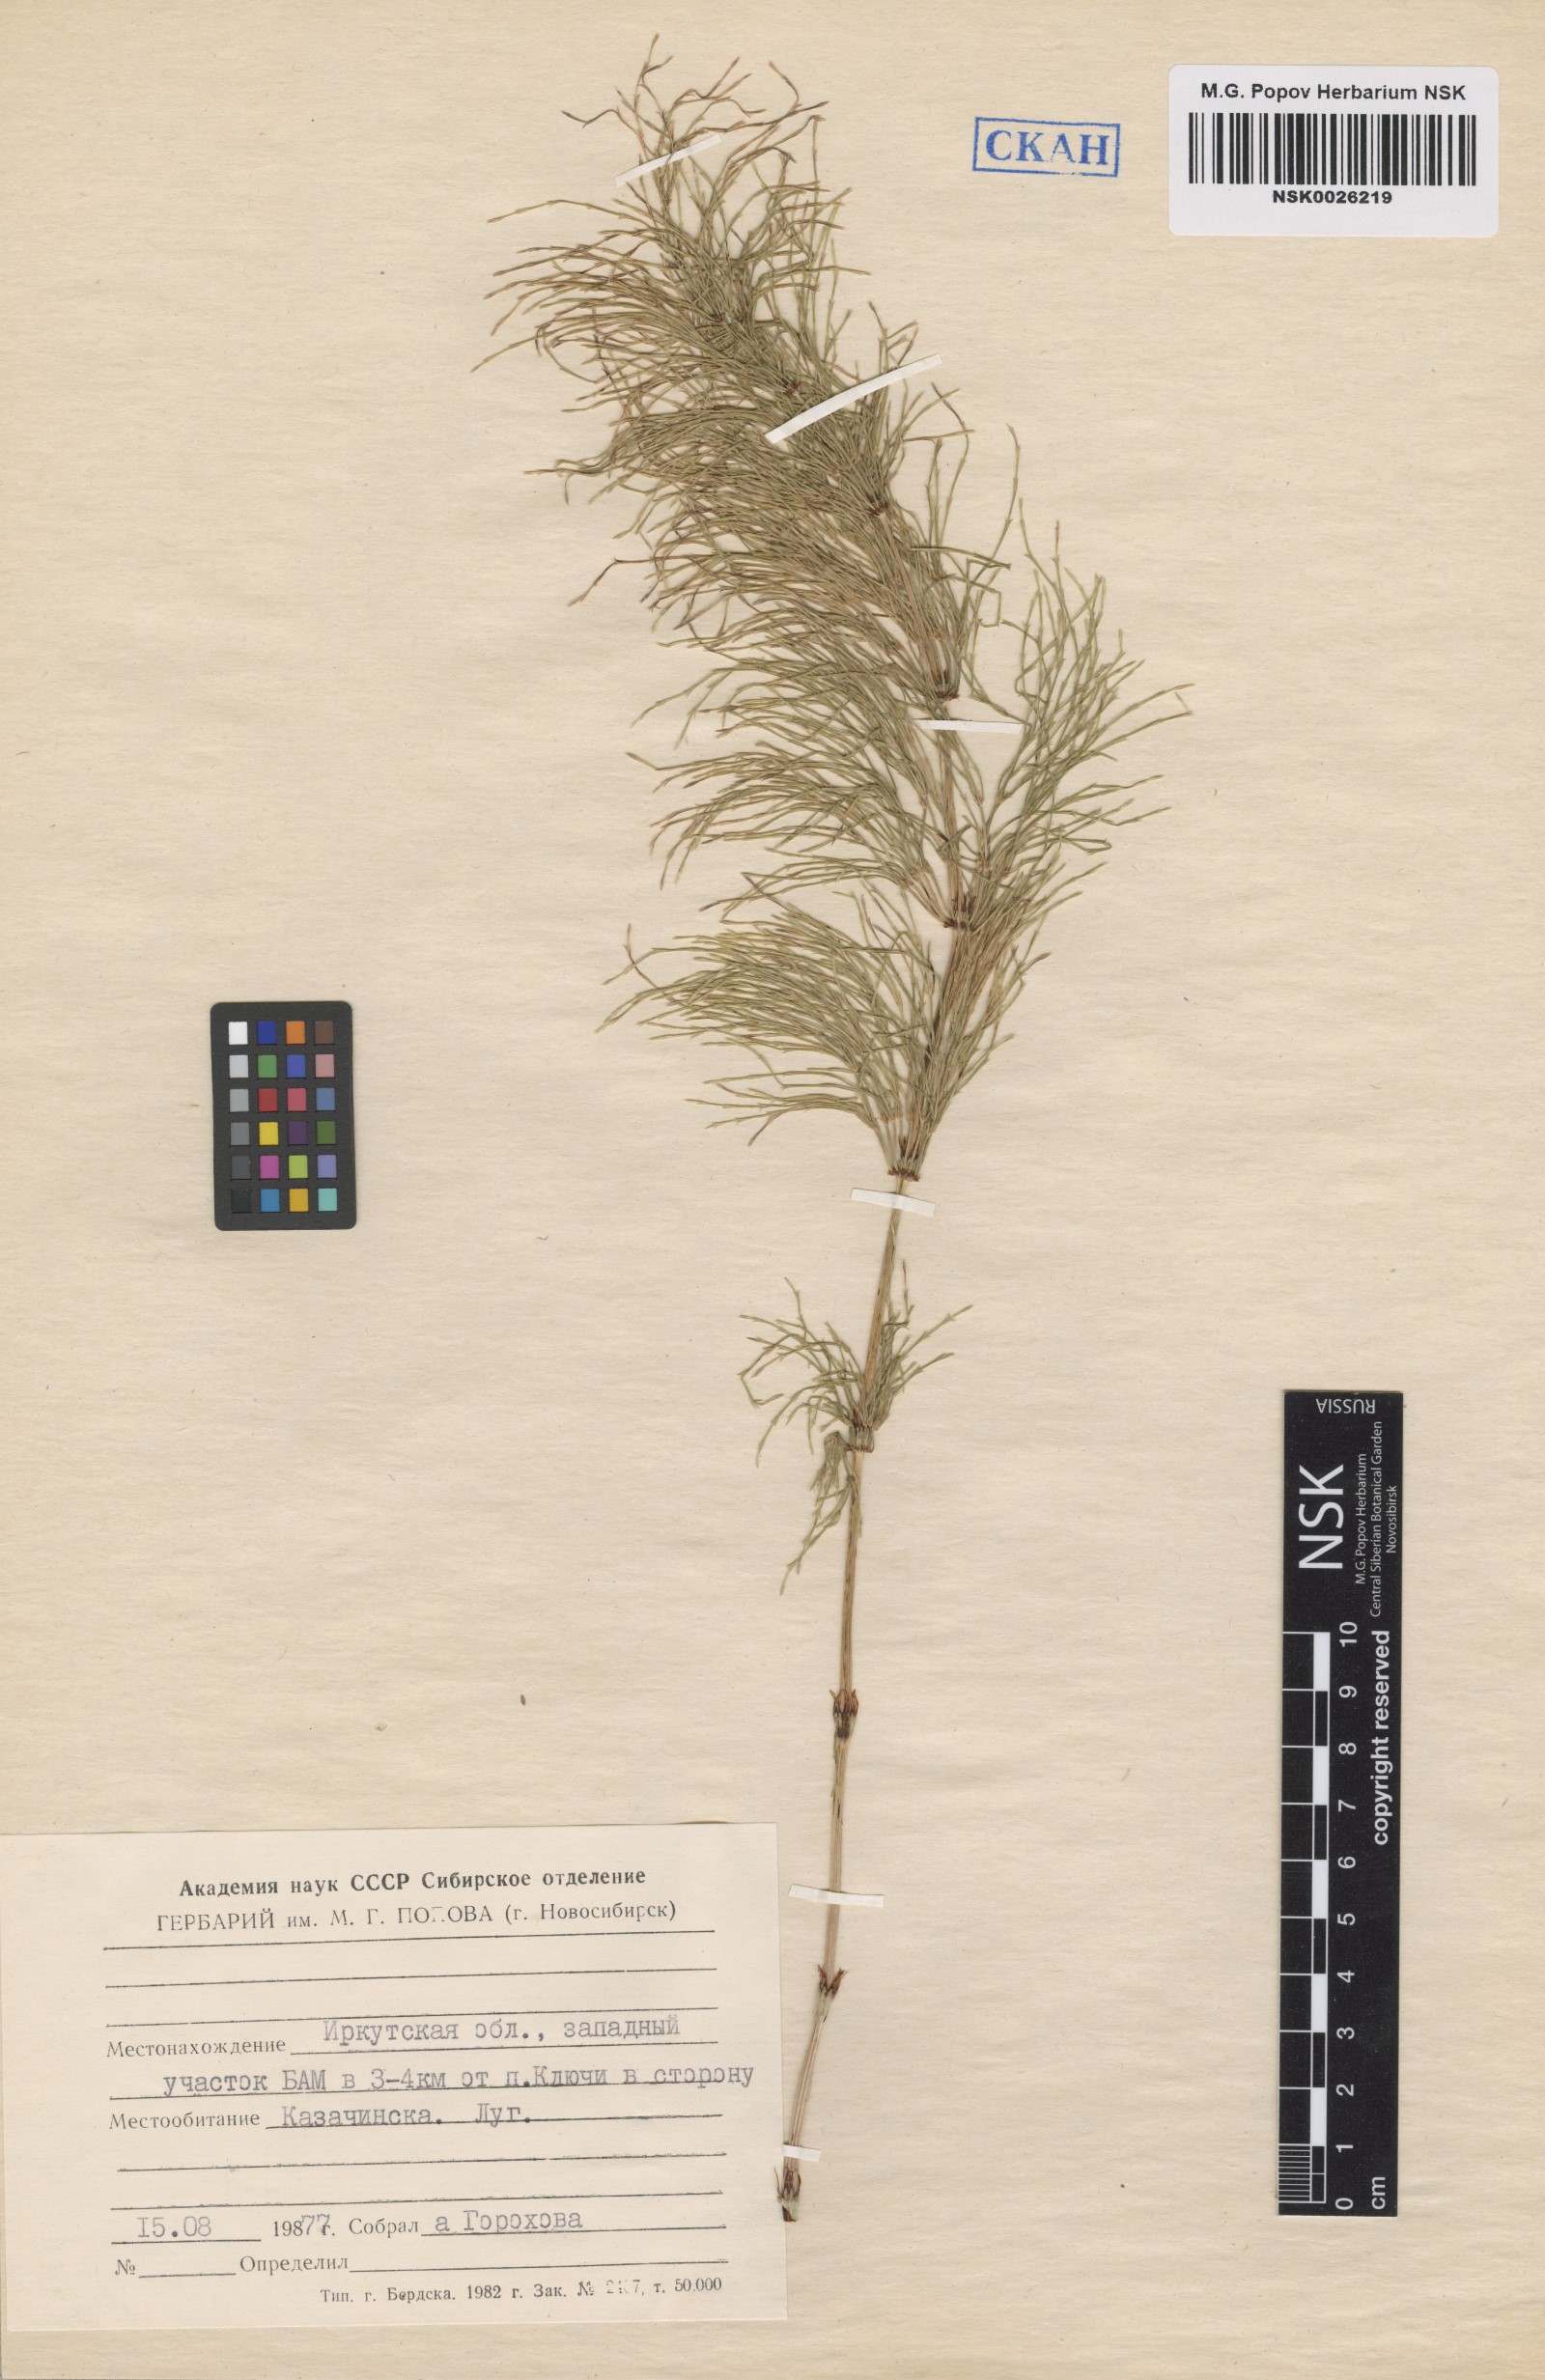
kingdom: Plantae
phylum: Tracheophyta
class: Polypodiopsida
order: Equisetales
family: Equisetaceae
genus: Equisetum
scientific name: Equisetum sylvaticum
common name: Wood horsetail
